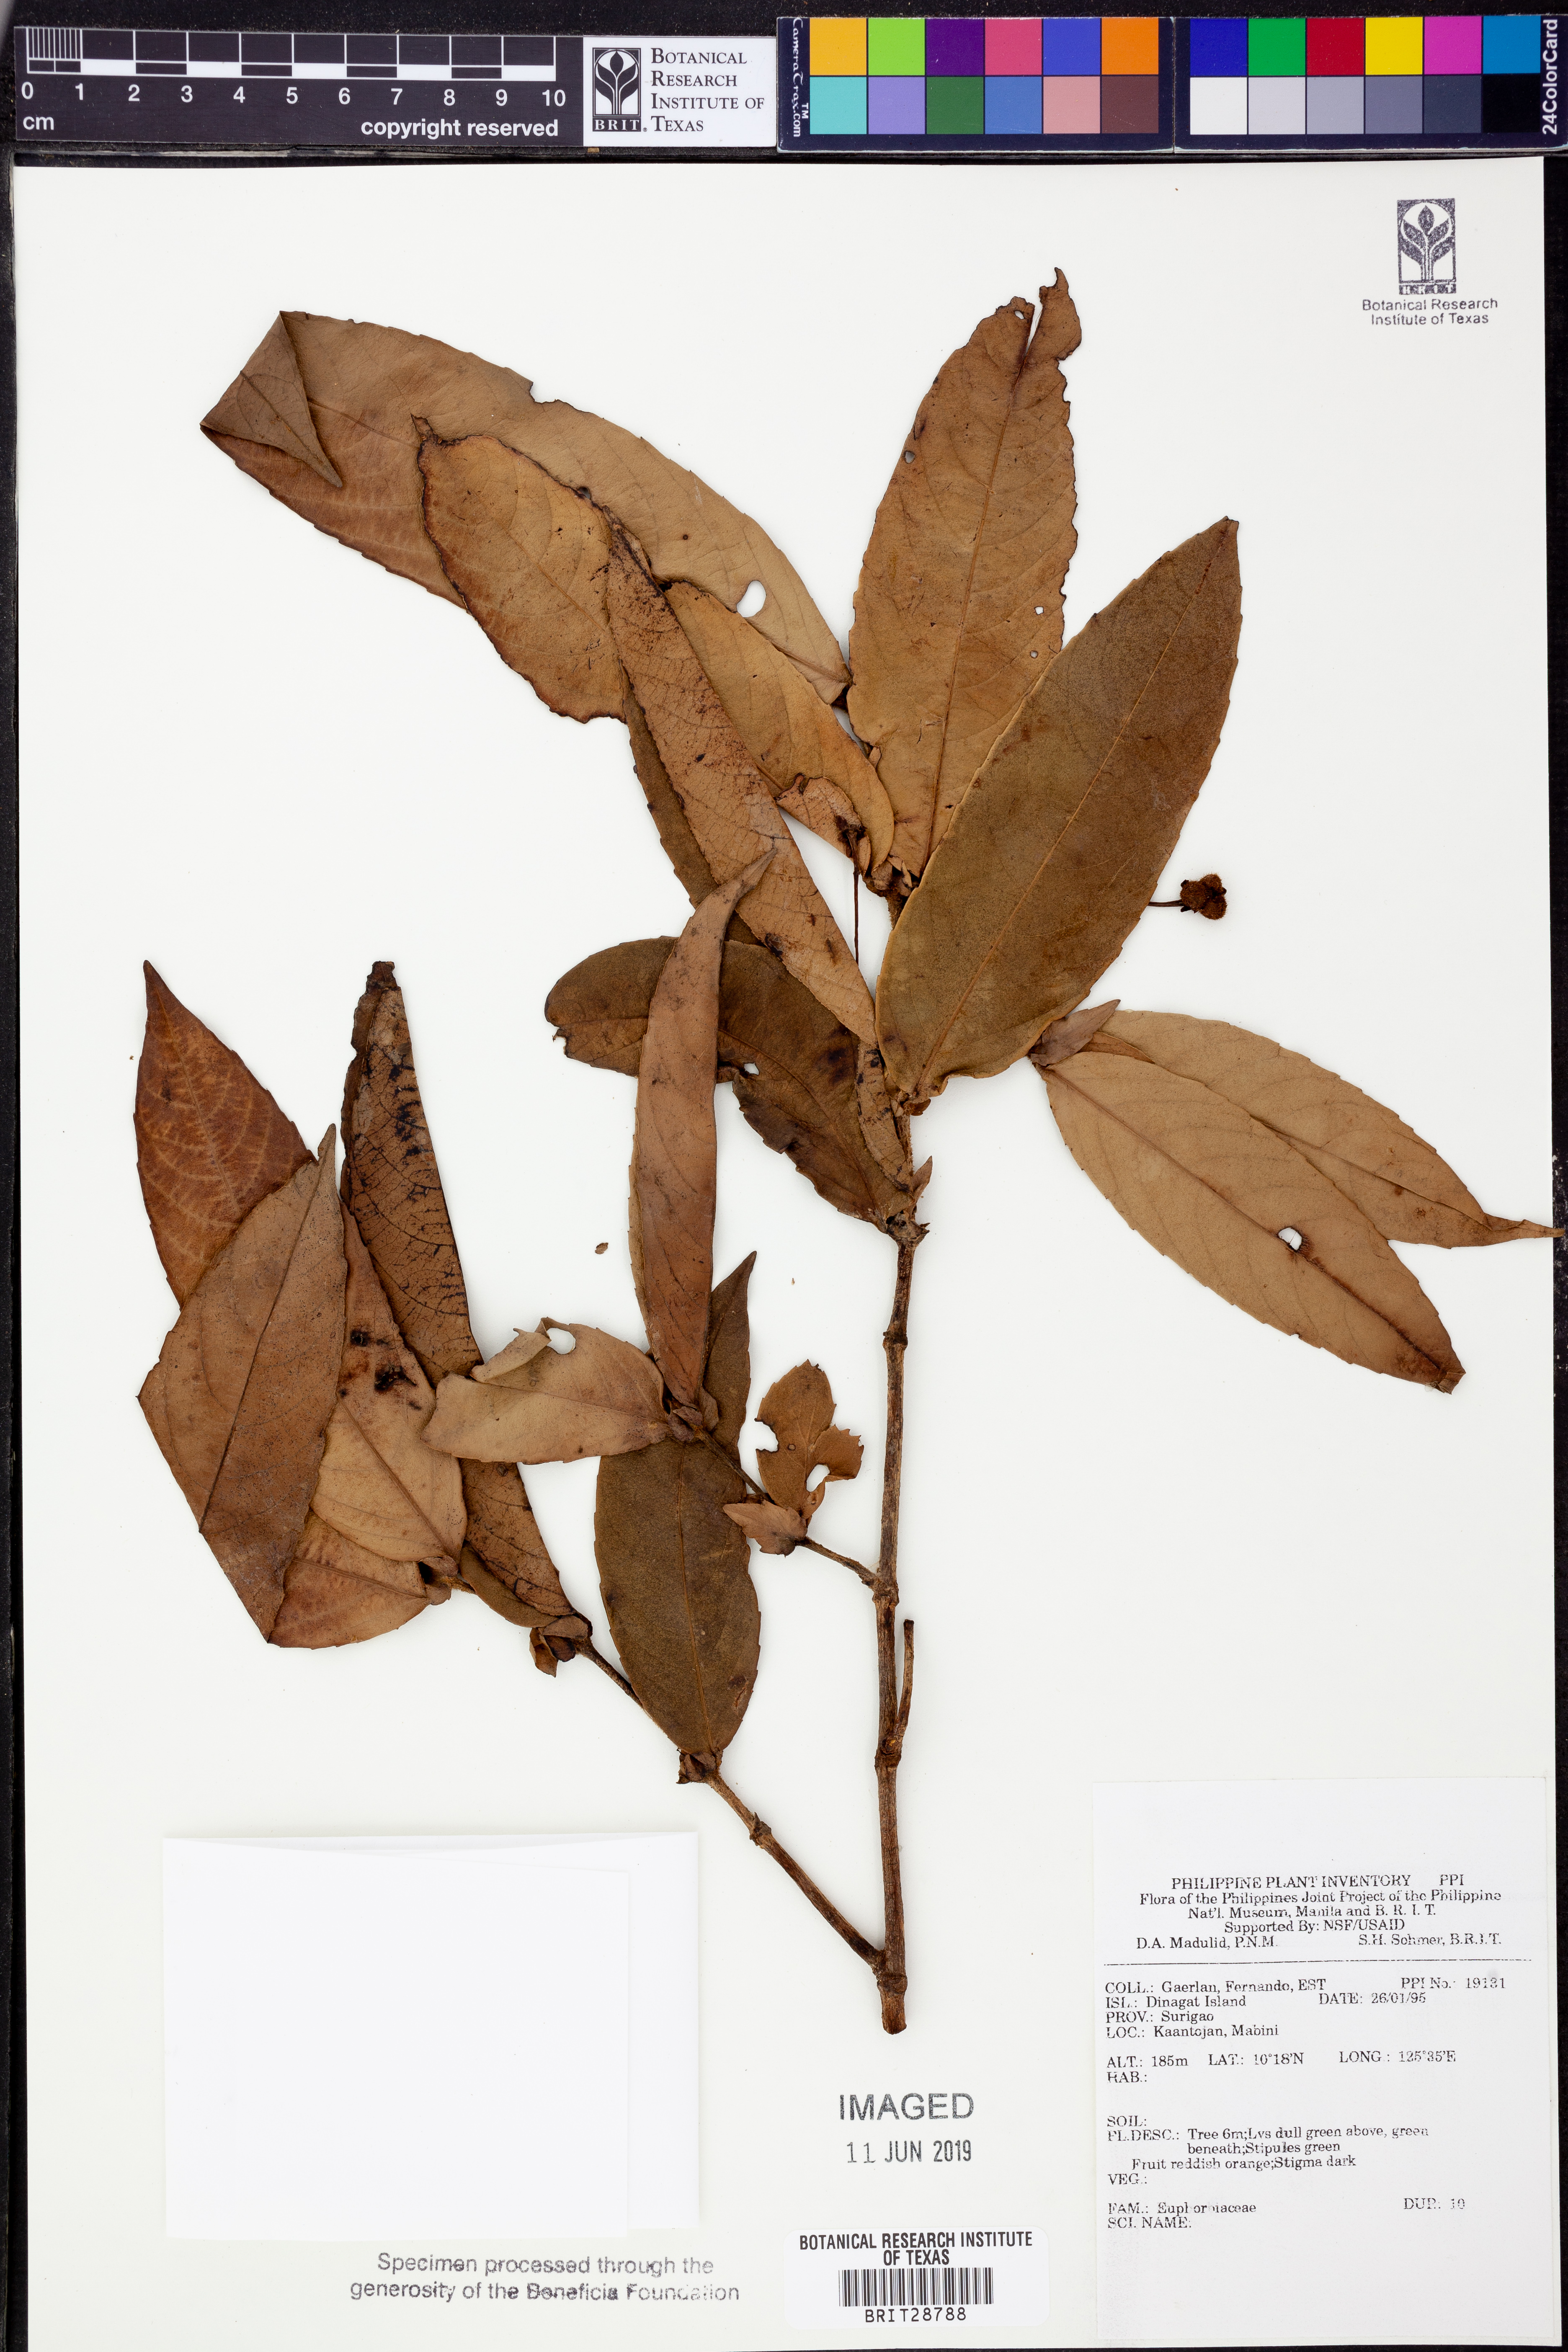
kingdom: Plantae
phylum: Tracheophyta
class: Magnoliopsida
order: Malpighiales
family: Euphorbiaceae
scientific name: Euphorbiaceae
